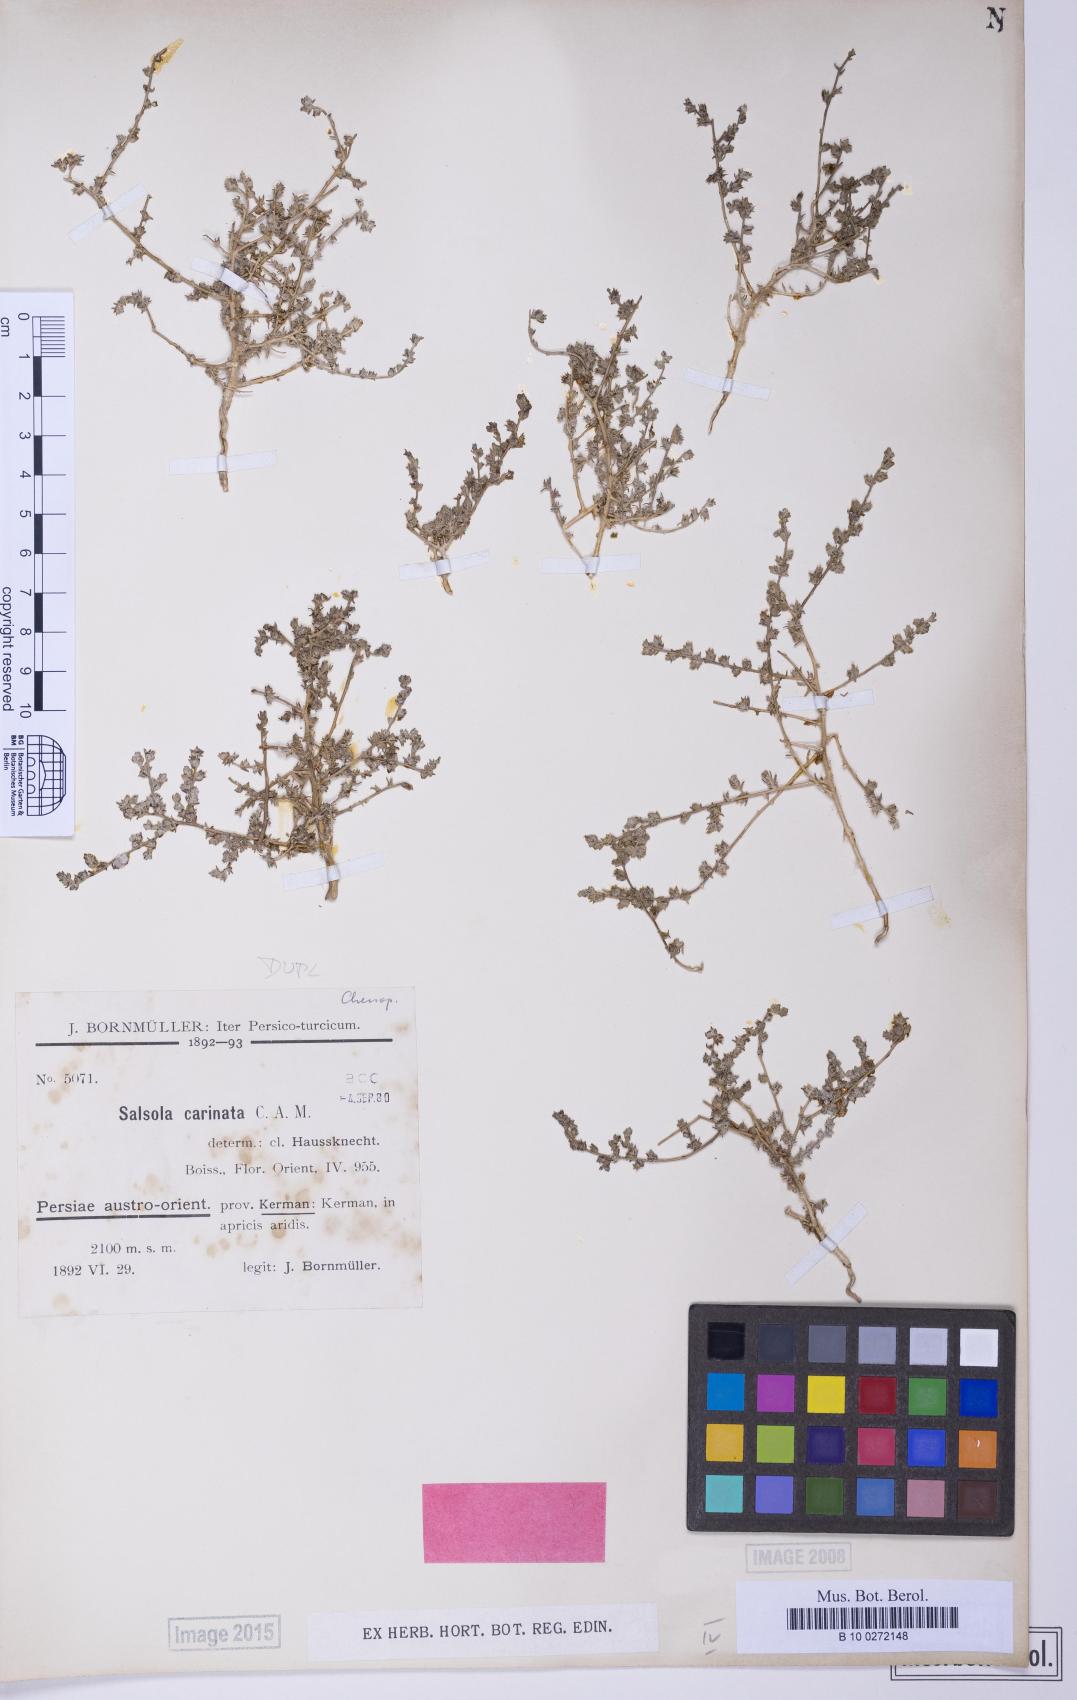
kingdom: Plantae
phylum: Tracheophyta
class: Magnoliopsida
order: Caryophyllales
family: Amaranthaceae
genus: Caroxylon
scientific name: Caroxylon jordanicola
